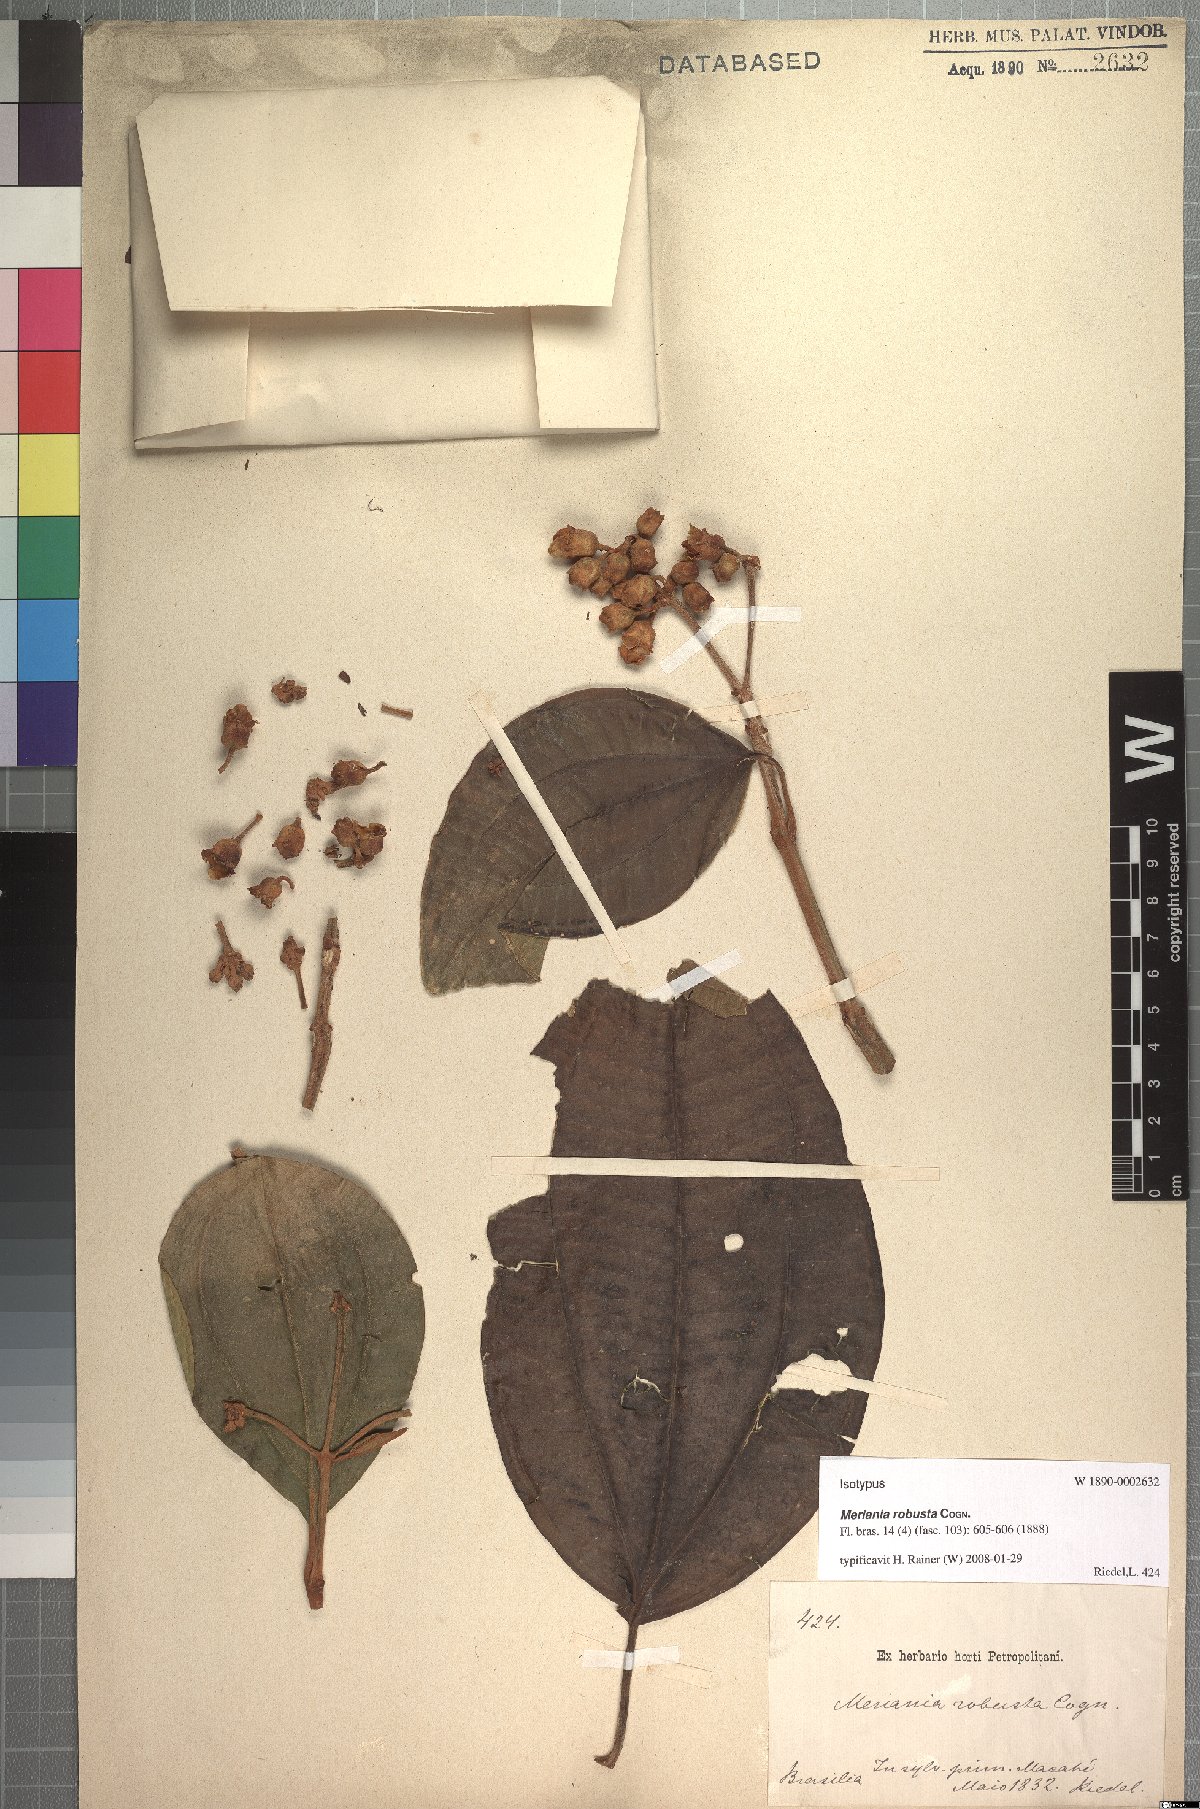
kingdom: Plantae
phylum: Tracheophyta
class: Magnoliopsida
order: Myrtales
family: Melastomataceae
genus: Meriania
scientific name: Meriania robusta
